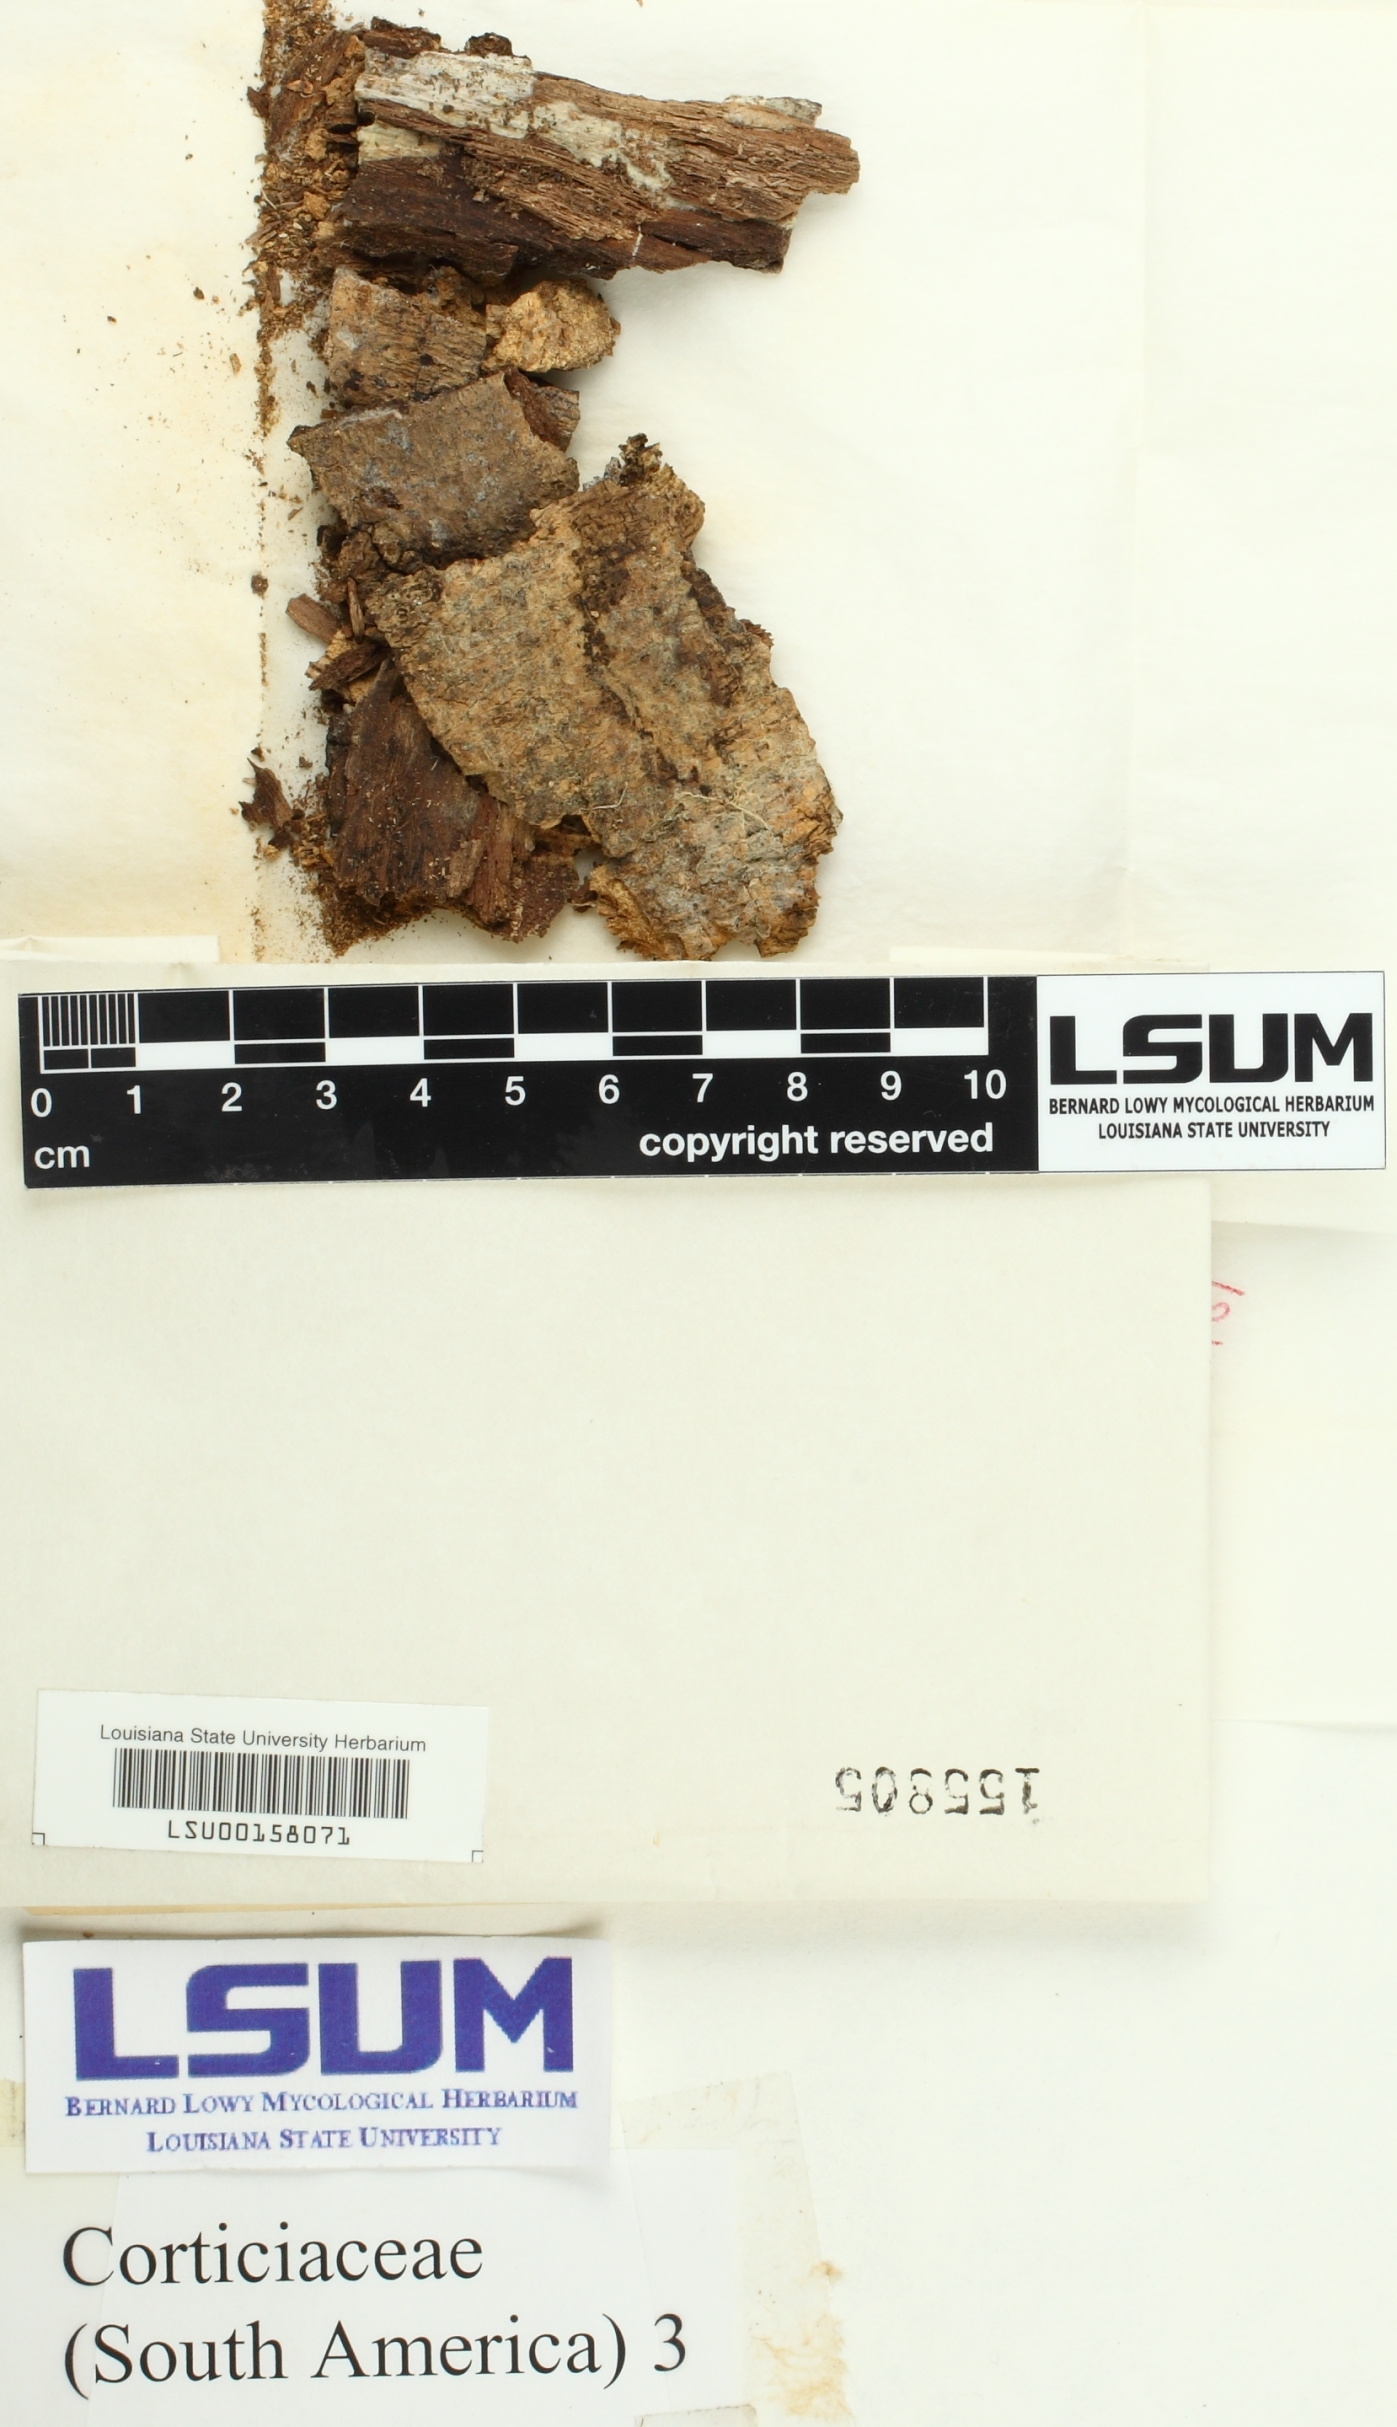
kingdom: Fungi
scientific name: Fungi
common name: Fungi
